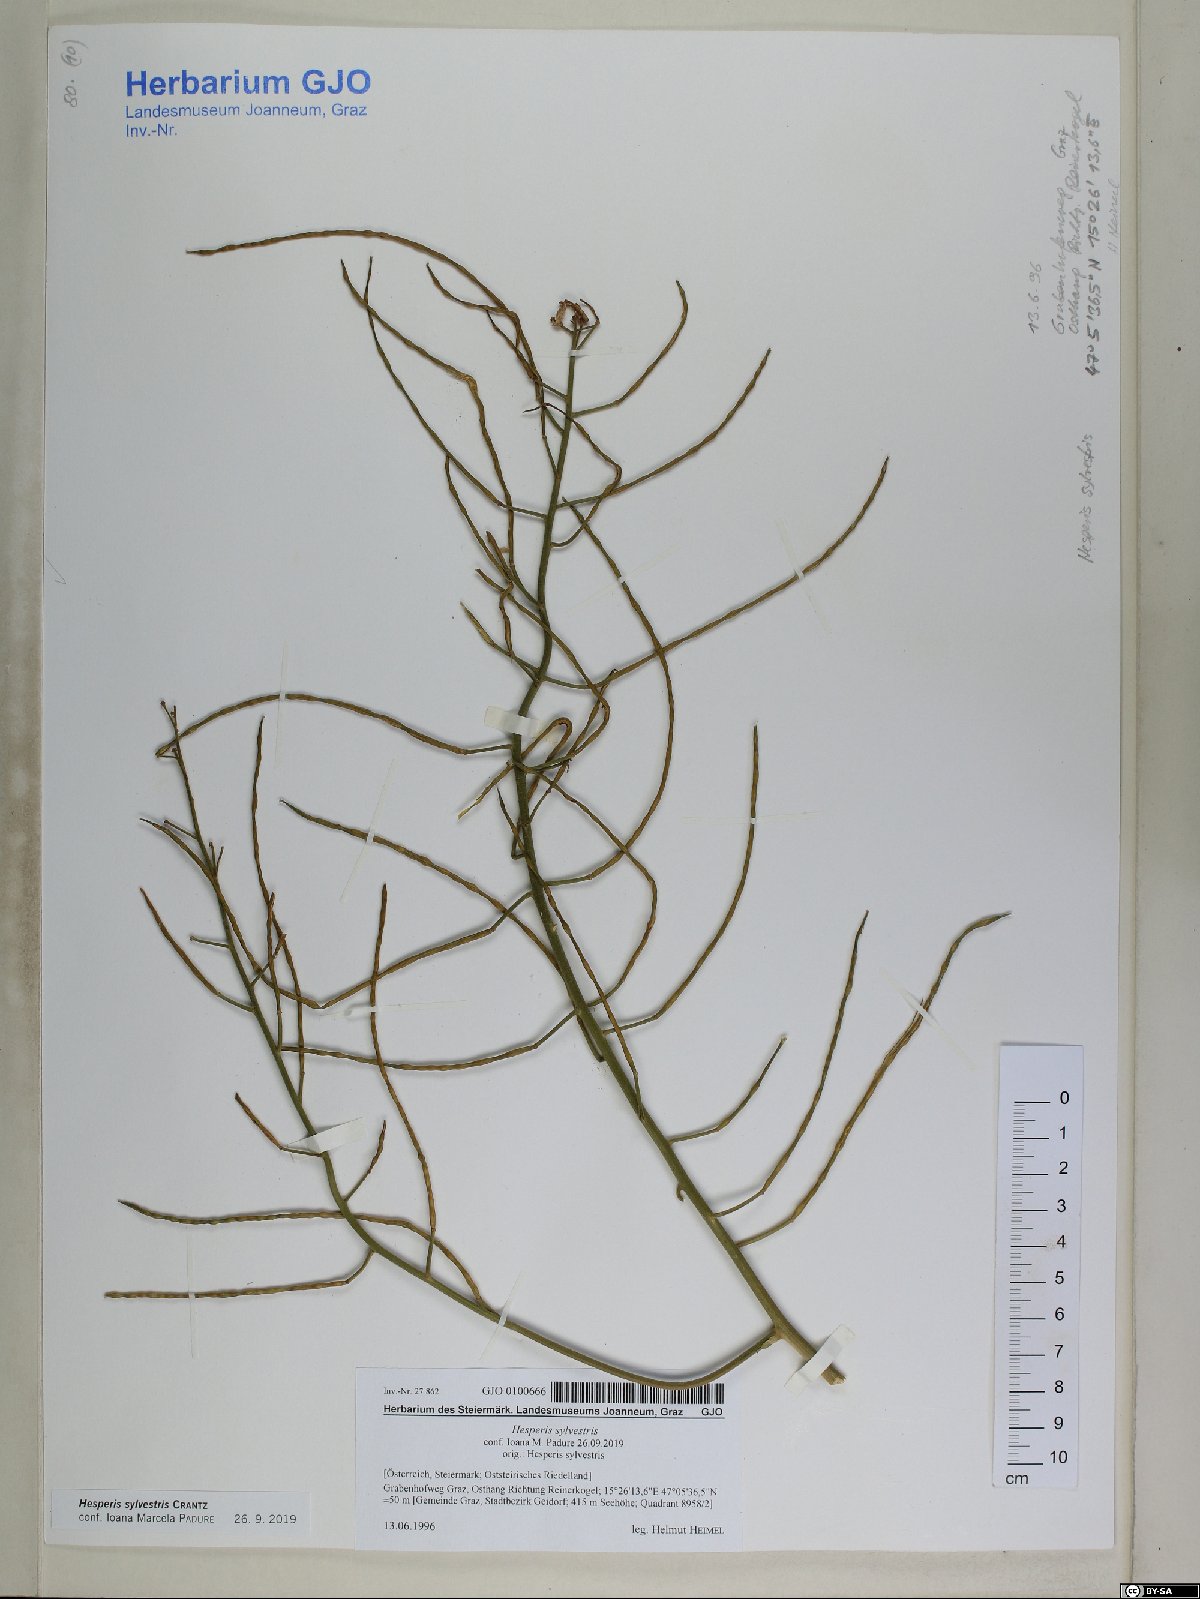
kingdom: Plantae
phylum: Tracheophyta
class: Magnoliopsida
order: Brassicales
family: Brassicaceae
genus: Hesperis
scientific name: Hesperis sylvestris
